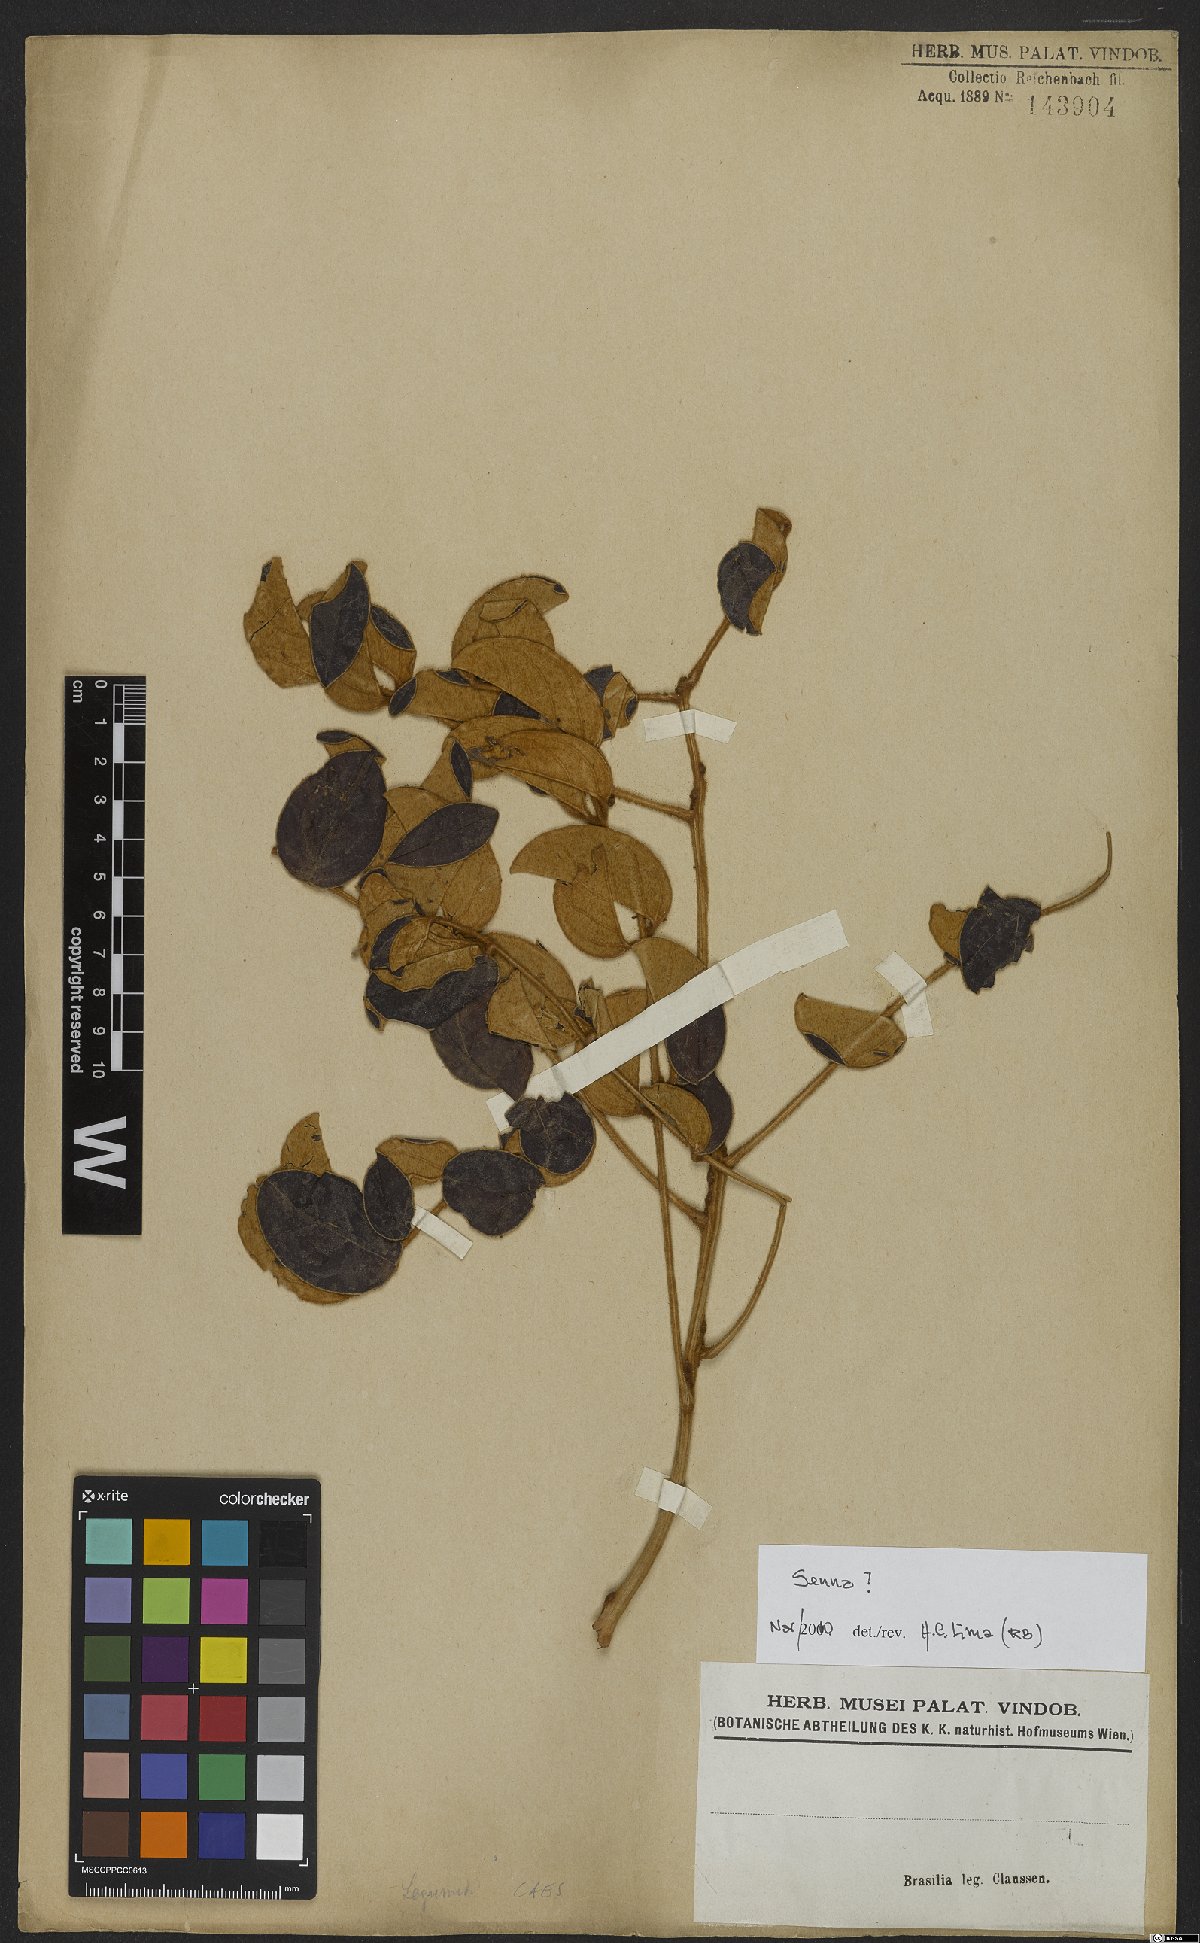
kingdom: Plantae
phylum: Tracheophyta
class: Magnoliopsida
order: Fabales
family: Fabaceae
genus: Senna
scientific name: Senna
